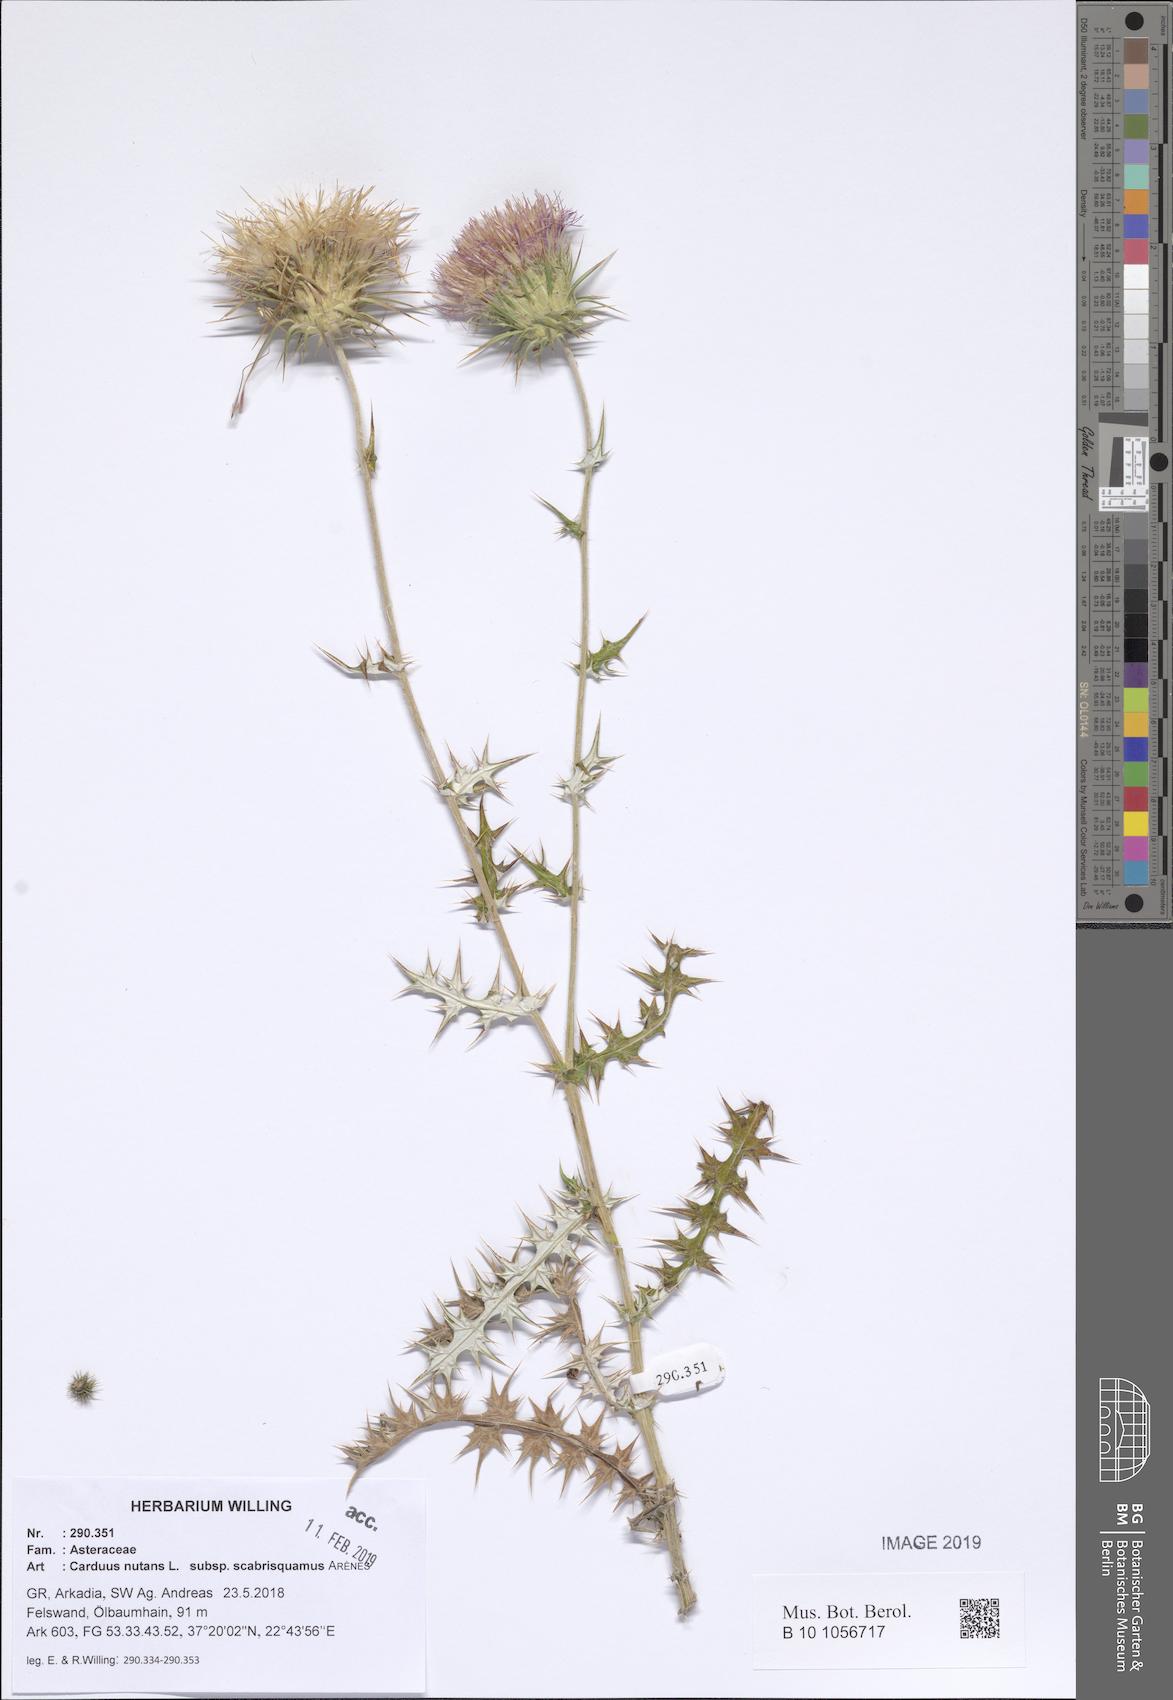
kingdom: Plantae
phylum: Tracheophyta
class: Magnoliopsida
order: Asterales
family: Asteraceae
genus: Carduus
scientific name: Carduus macrocephalus
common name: Giant thistle
